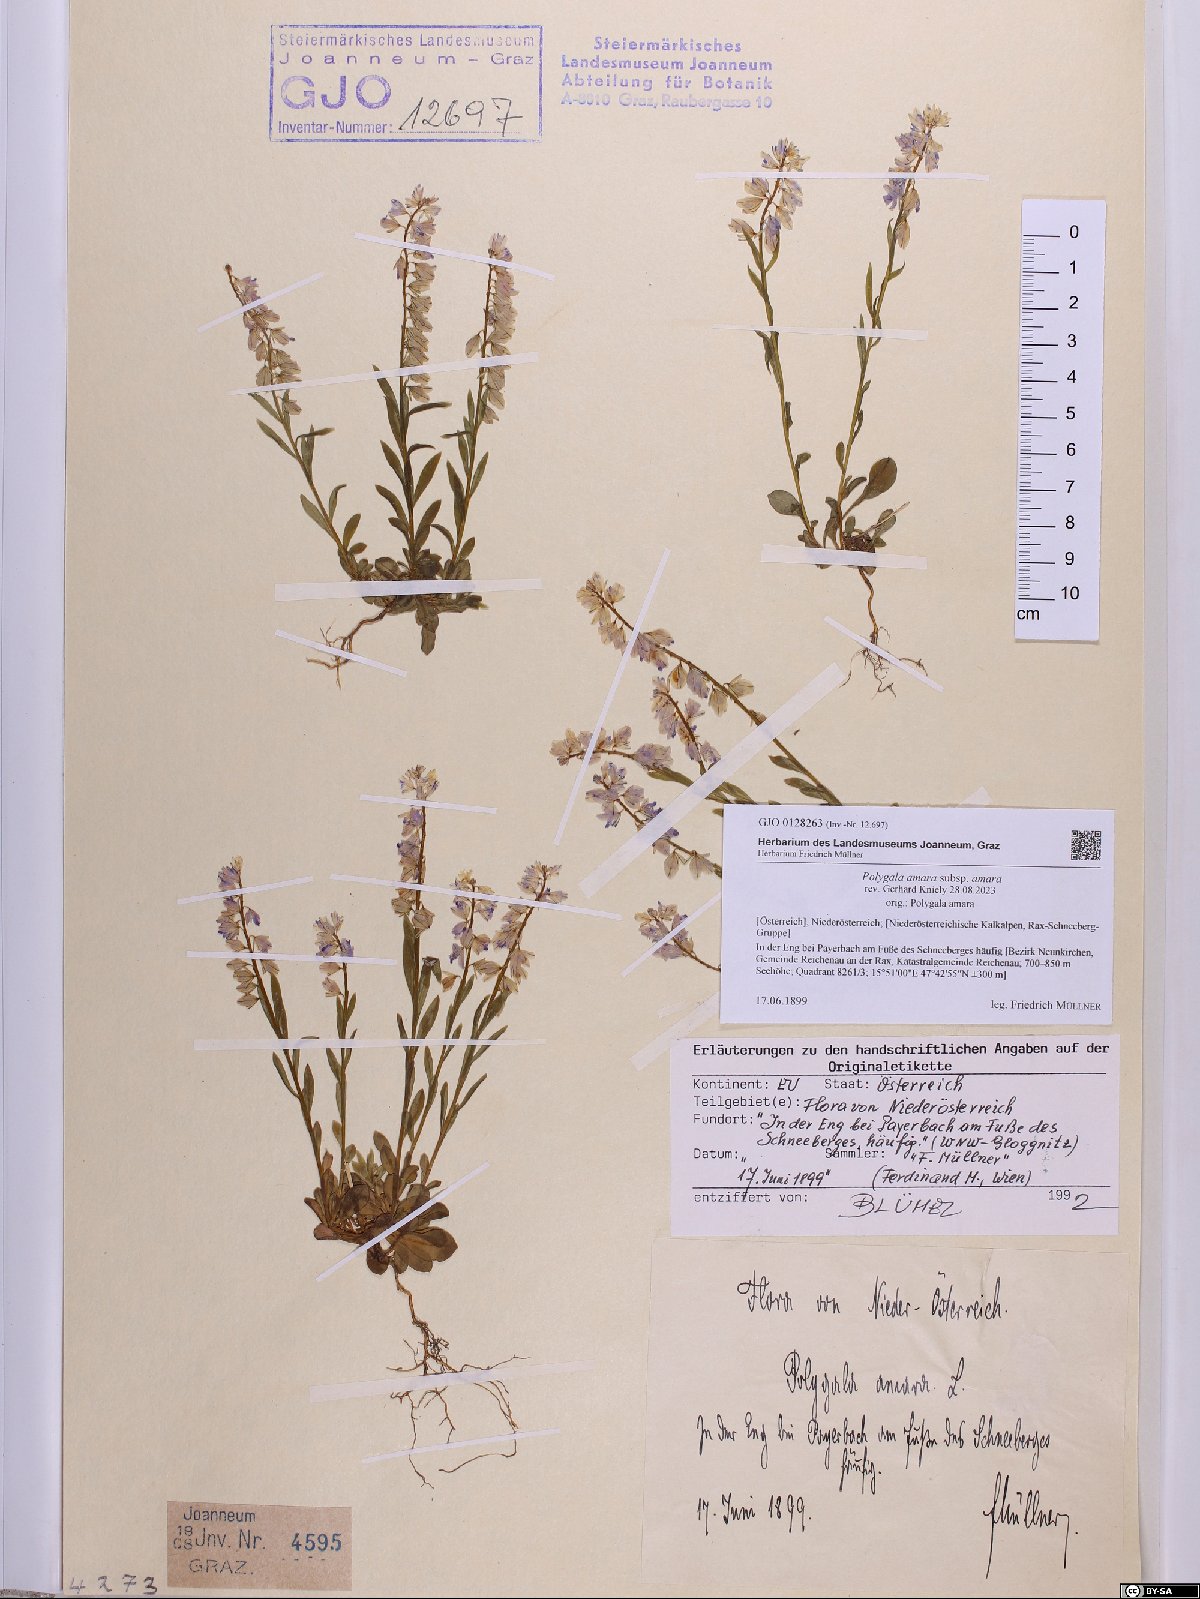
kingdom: Plantae
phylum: Tracheophyta
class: Magnoliopsida
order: Fabales
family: Polygalaceae
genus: Polygala
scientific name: Polygala amara
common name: Milkwort
